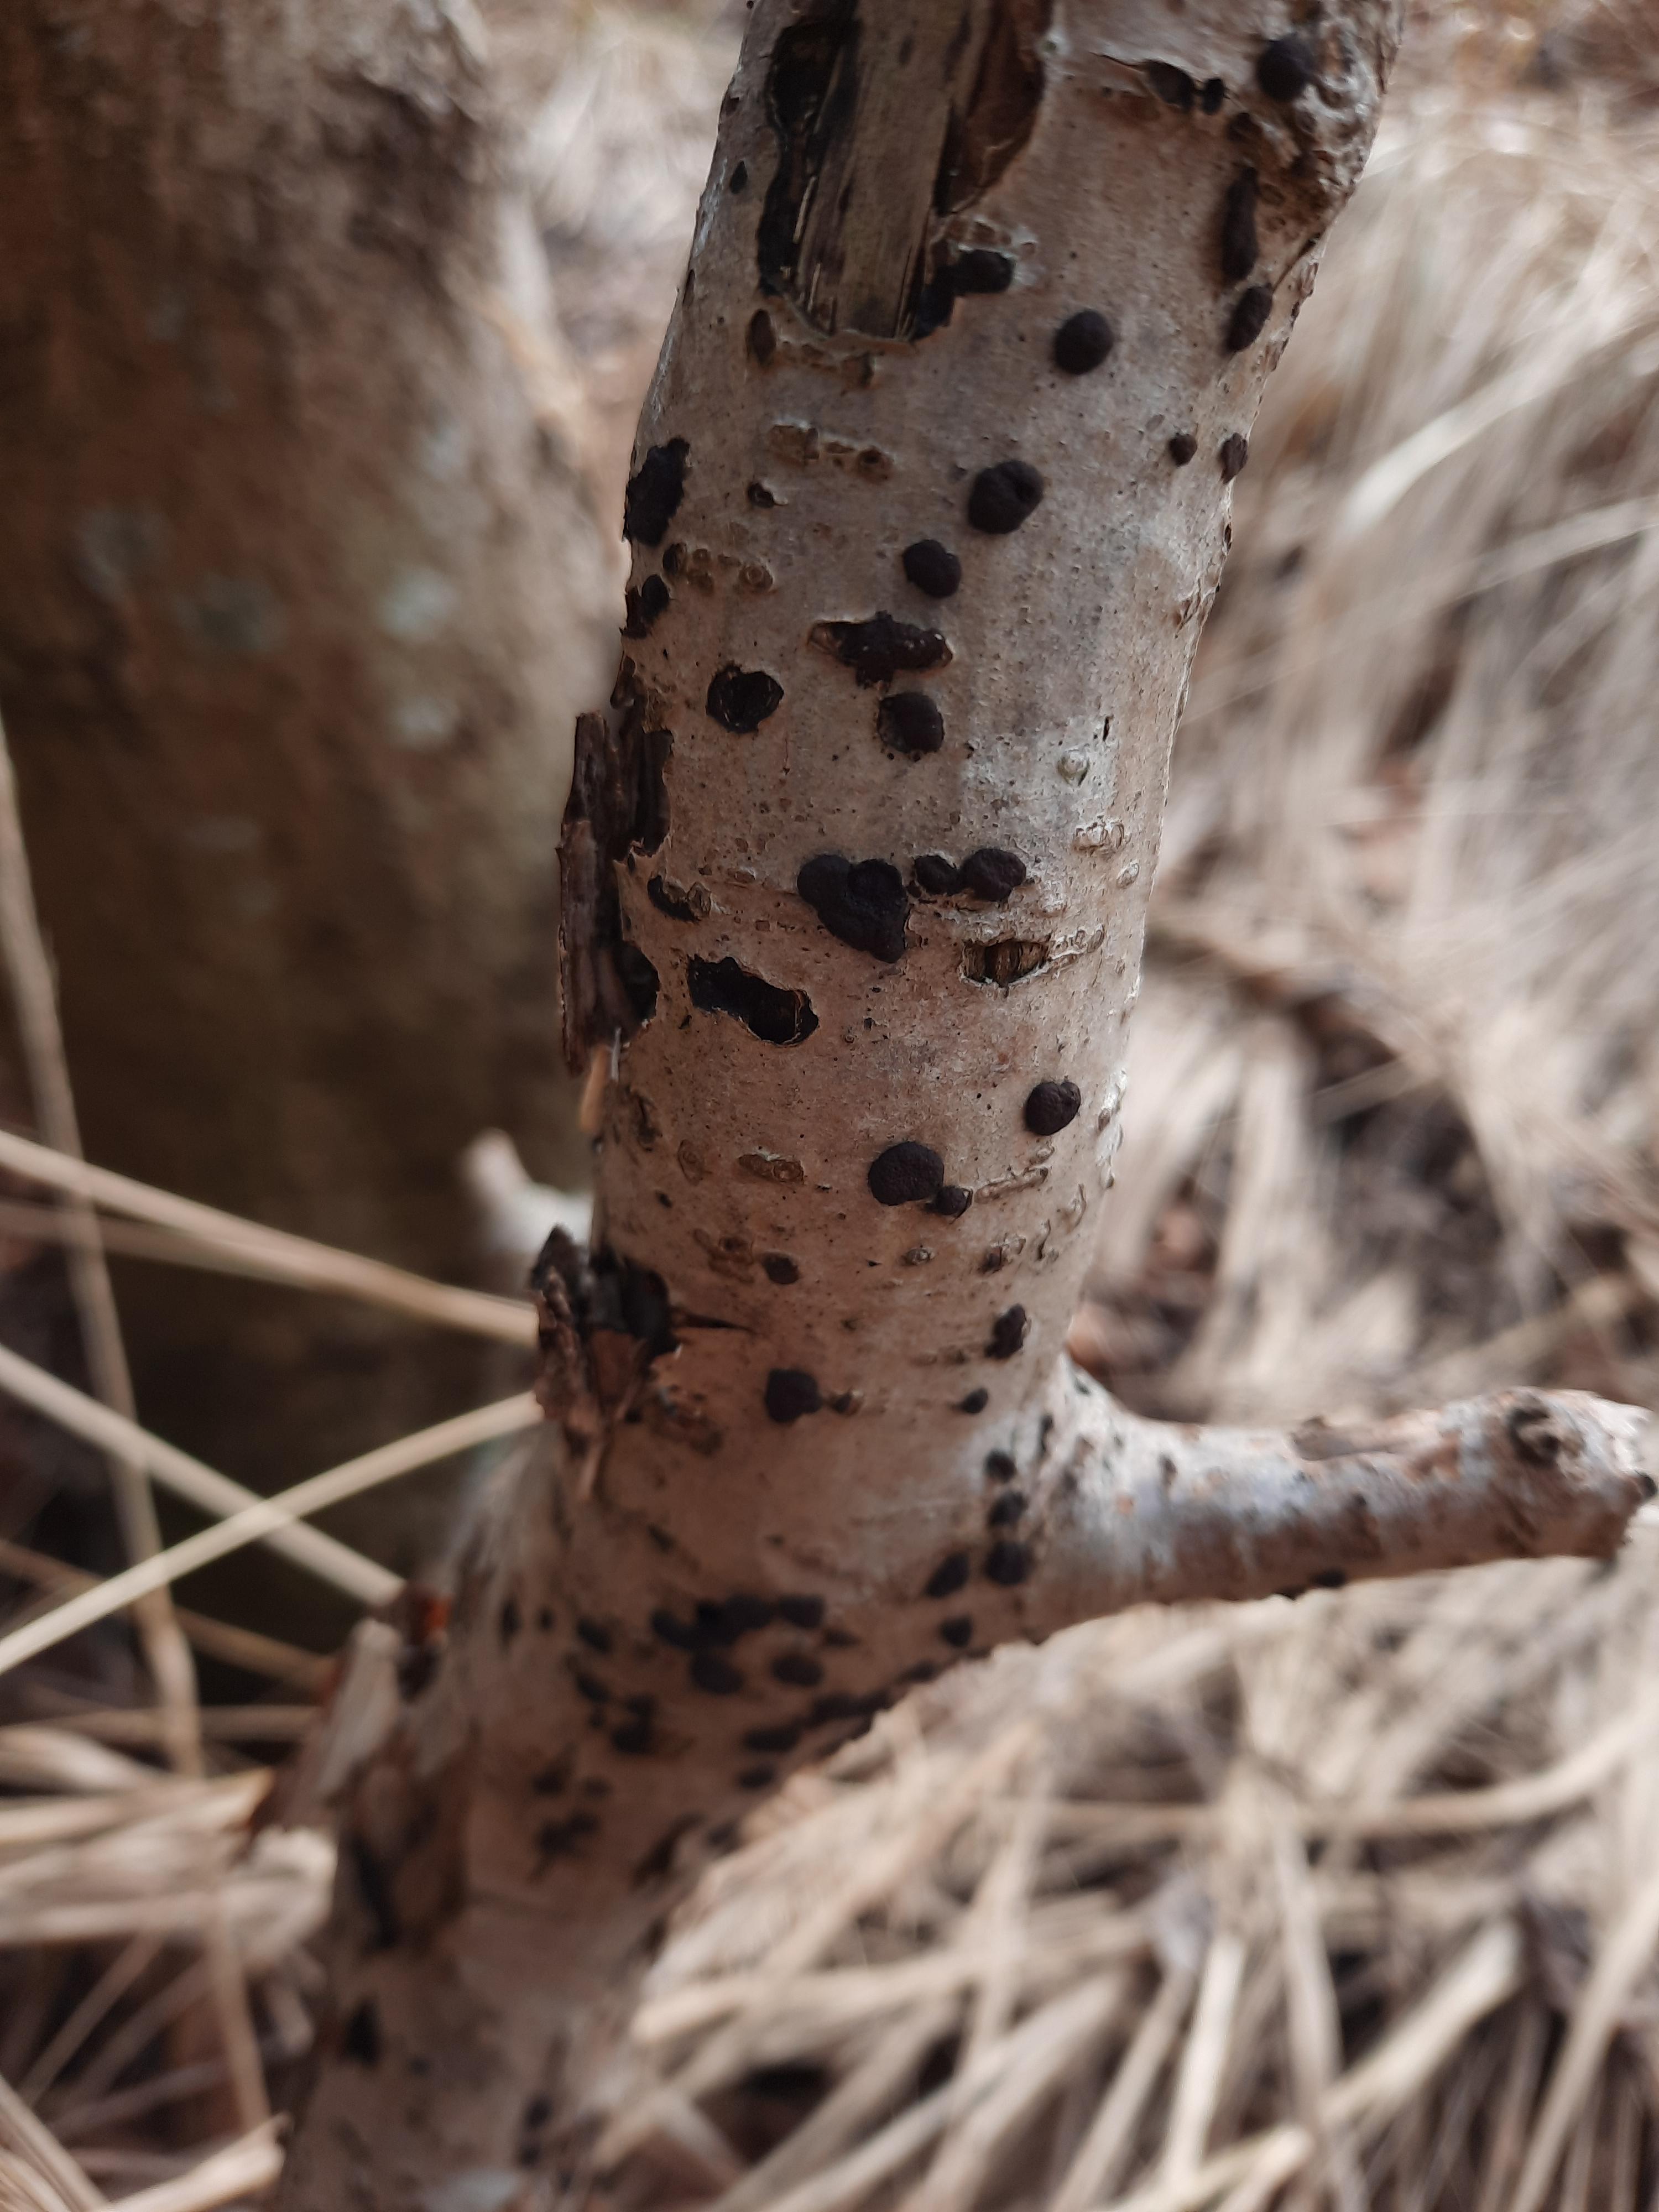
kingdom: Fungi
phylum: Ascomycota
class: Sordariomycetes
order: Xylariales
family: Hypoxylaceae
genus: Hypoxylon
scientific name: Hypoxylon fuscum
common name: kegleformet kulbær
